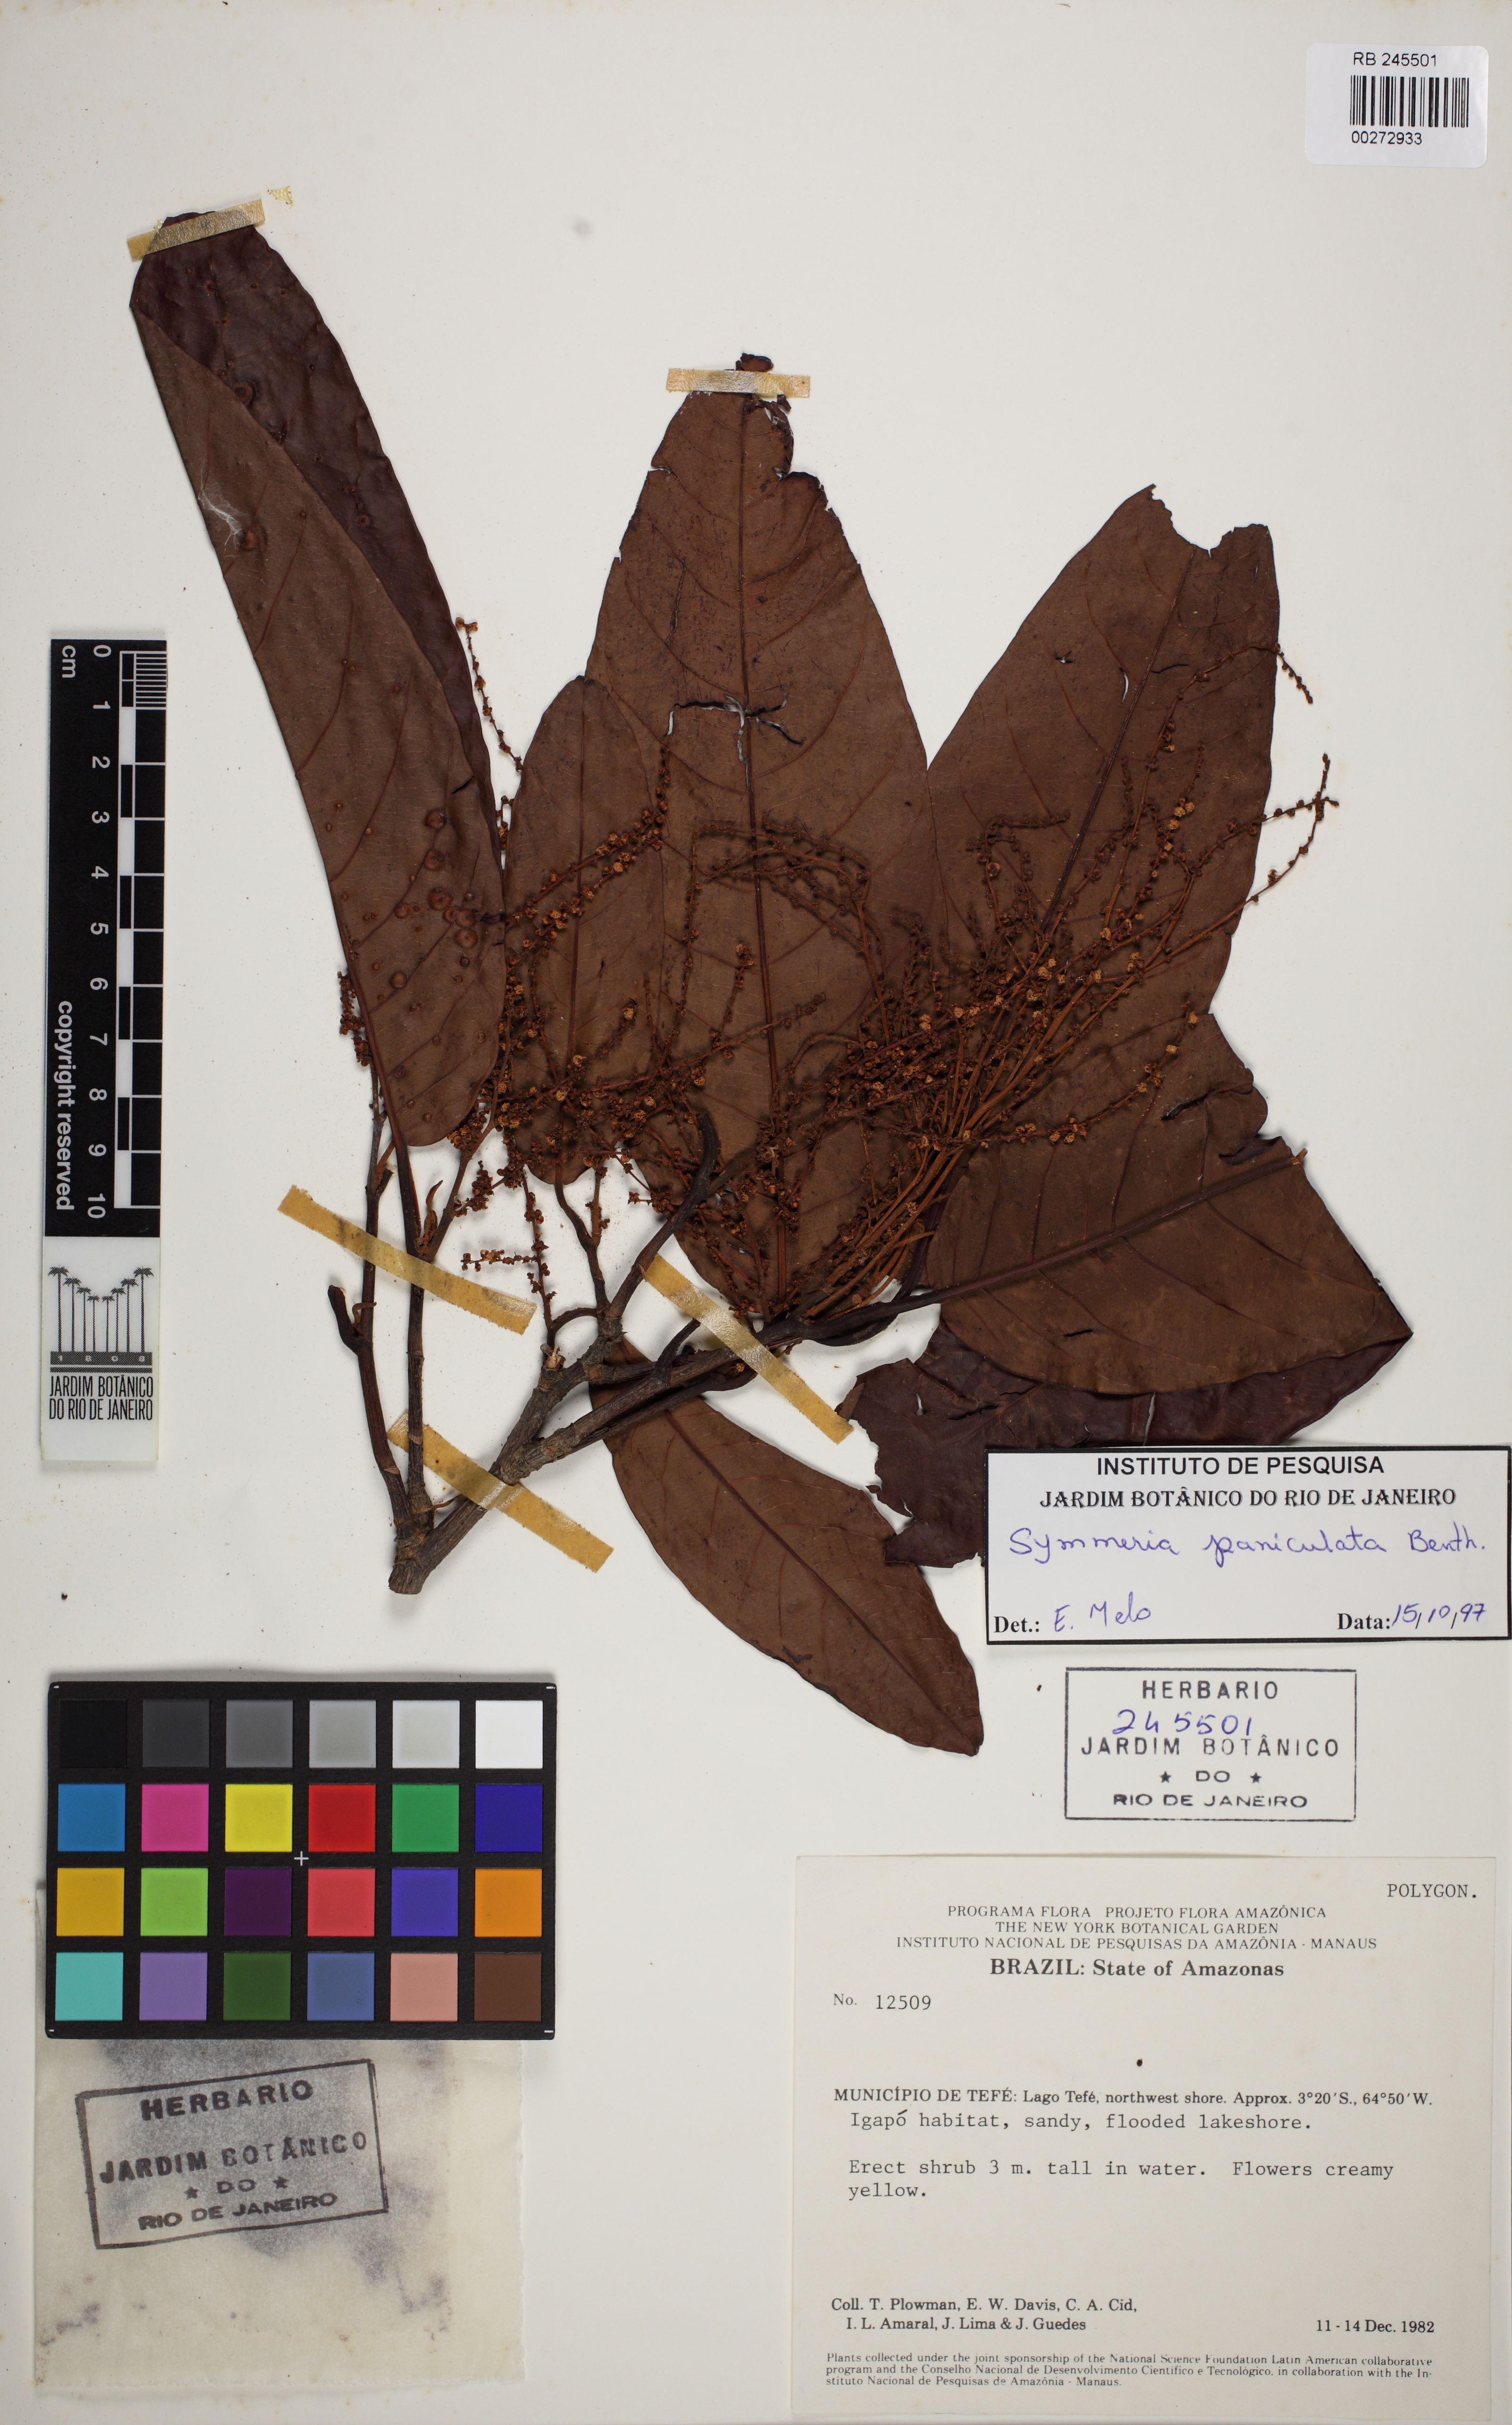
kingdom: Plantae
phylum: Tracheophyta
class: Magnoliopsida
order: Caryophyllales
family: Polygonaceae
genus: Symmeria
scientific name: Symmeria paniculata
